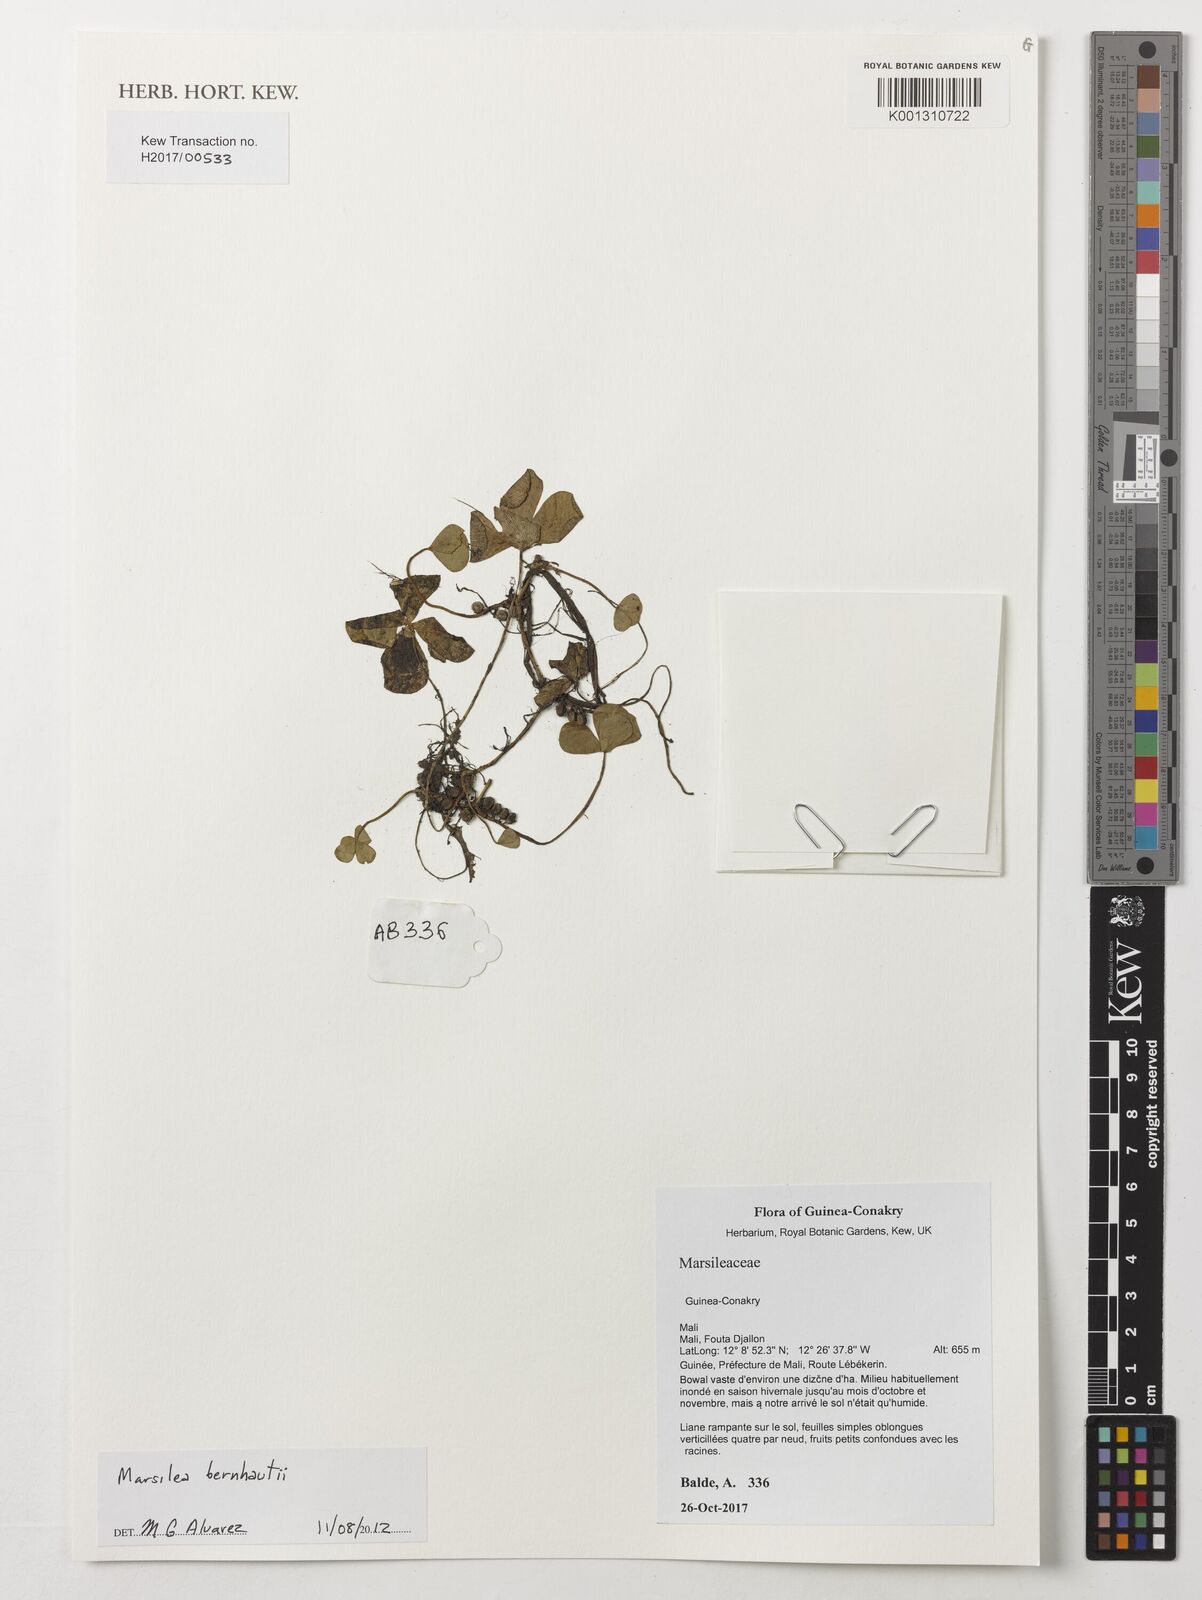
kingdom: Plantae
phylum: Tracheophyta
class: Polypodiopsida
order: Salviniales
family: Marsileaceae
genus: Marsilea
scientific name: Marsilea berhautii
